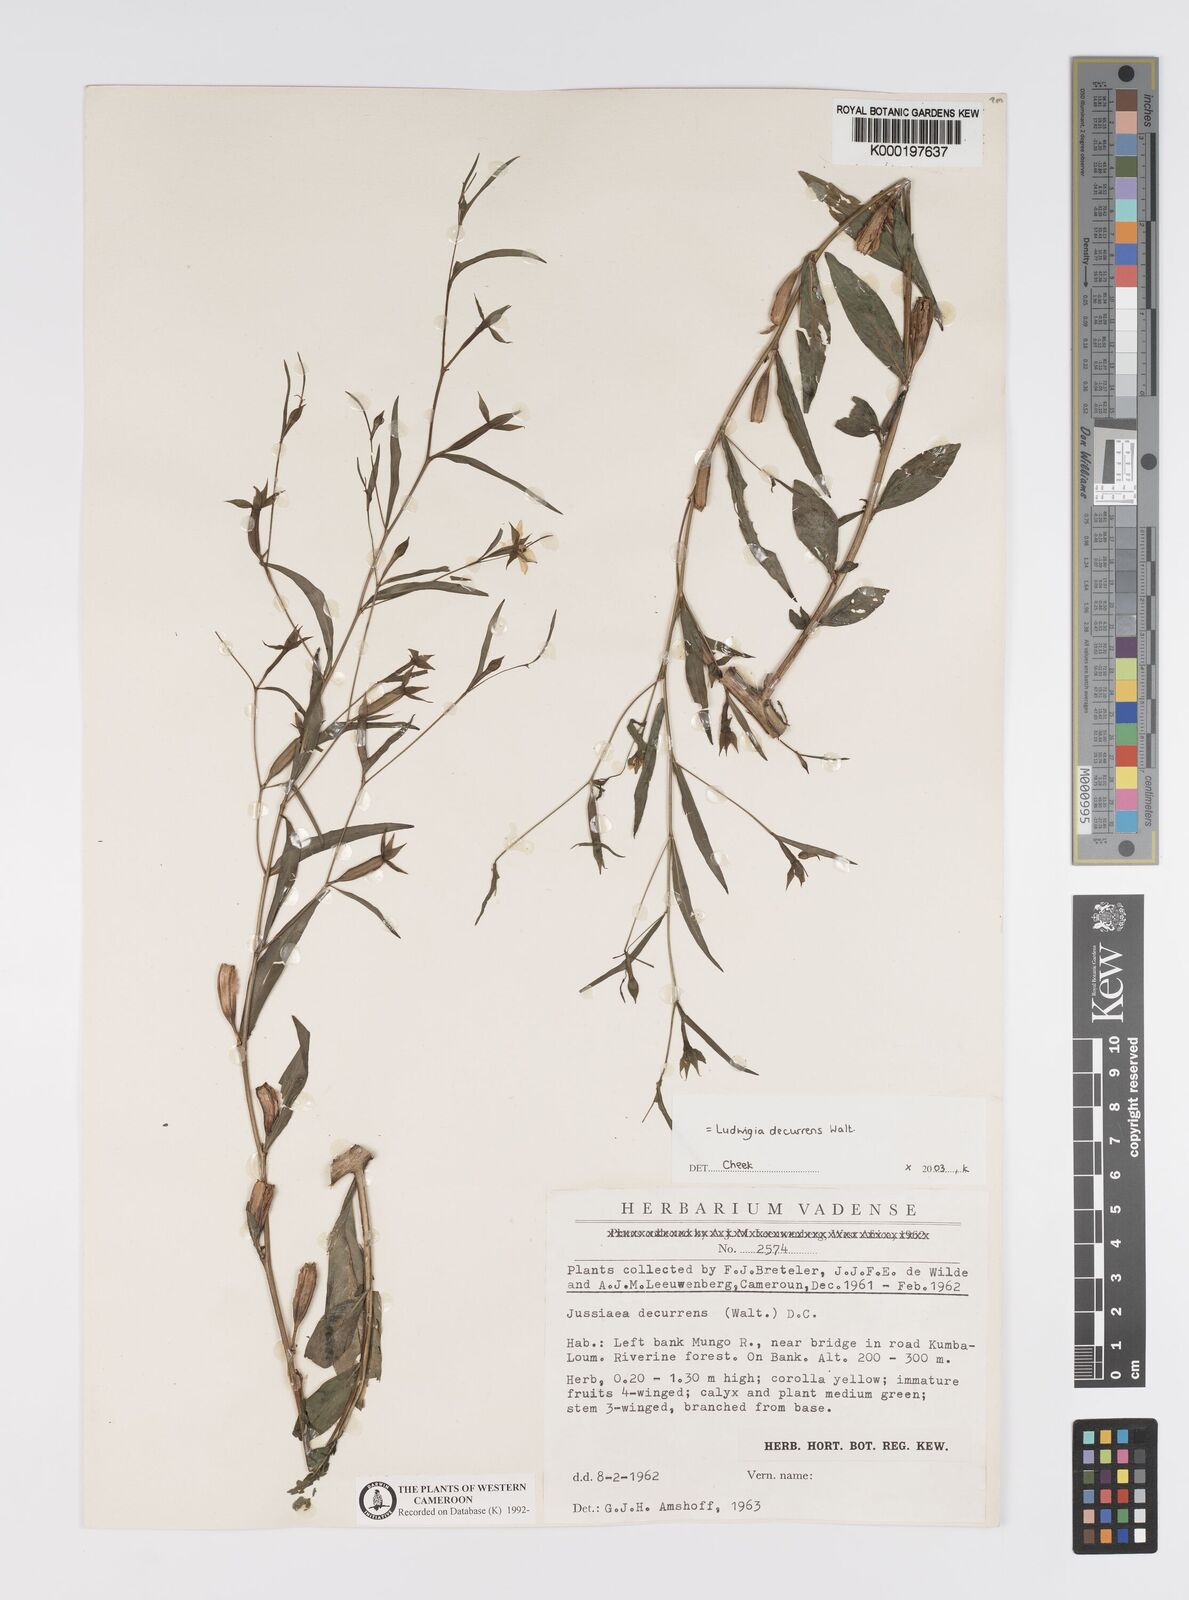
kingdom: Plantae
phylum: Tracheophyta
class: Magnoliopsida
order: Myrtales
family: Onagraceae
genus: Ludwigia
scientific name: Ludwigia decurrens
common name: Winged water-primrose
